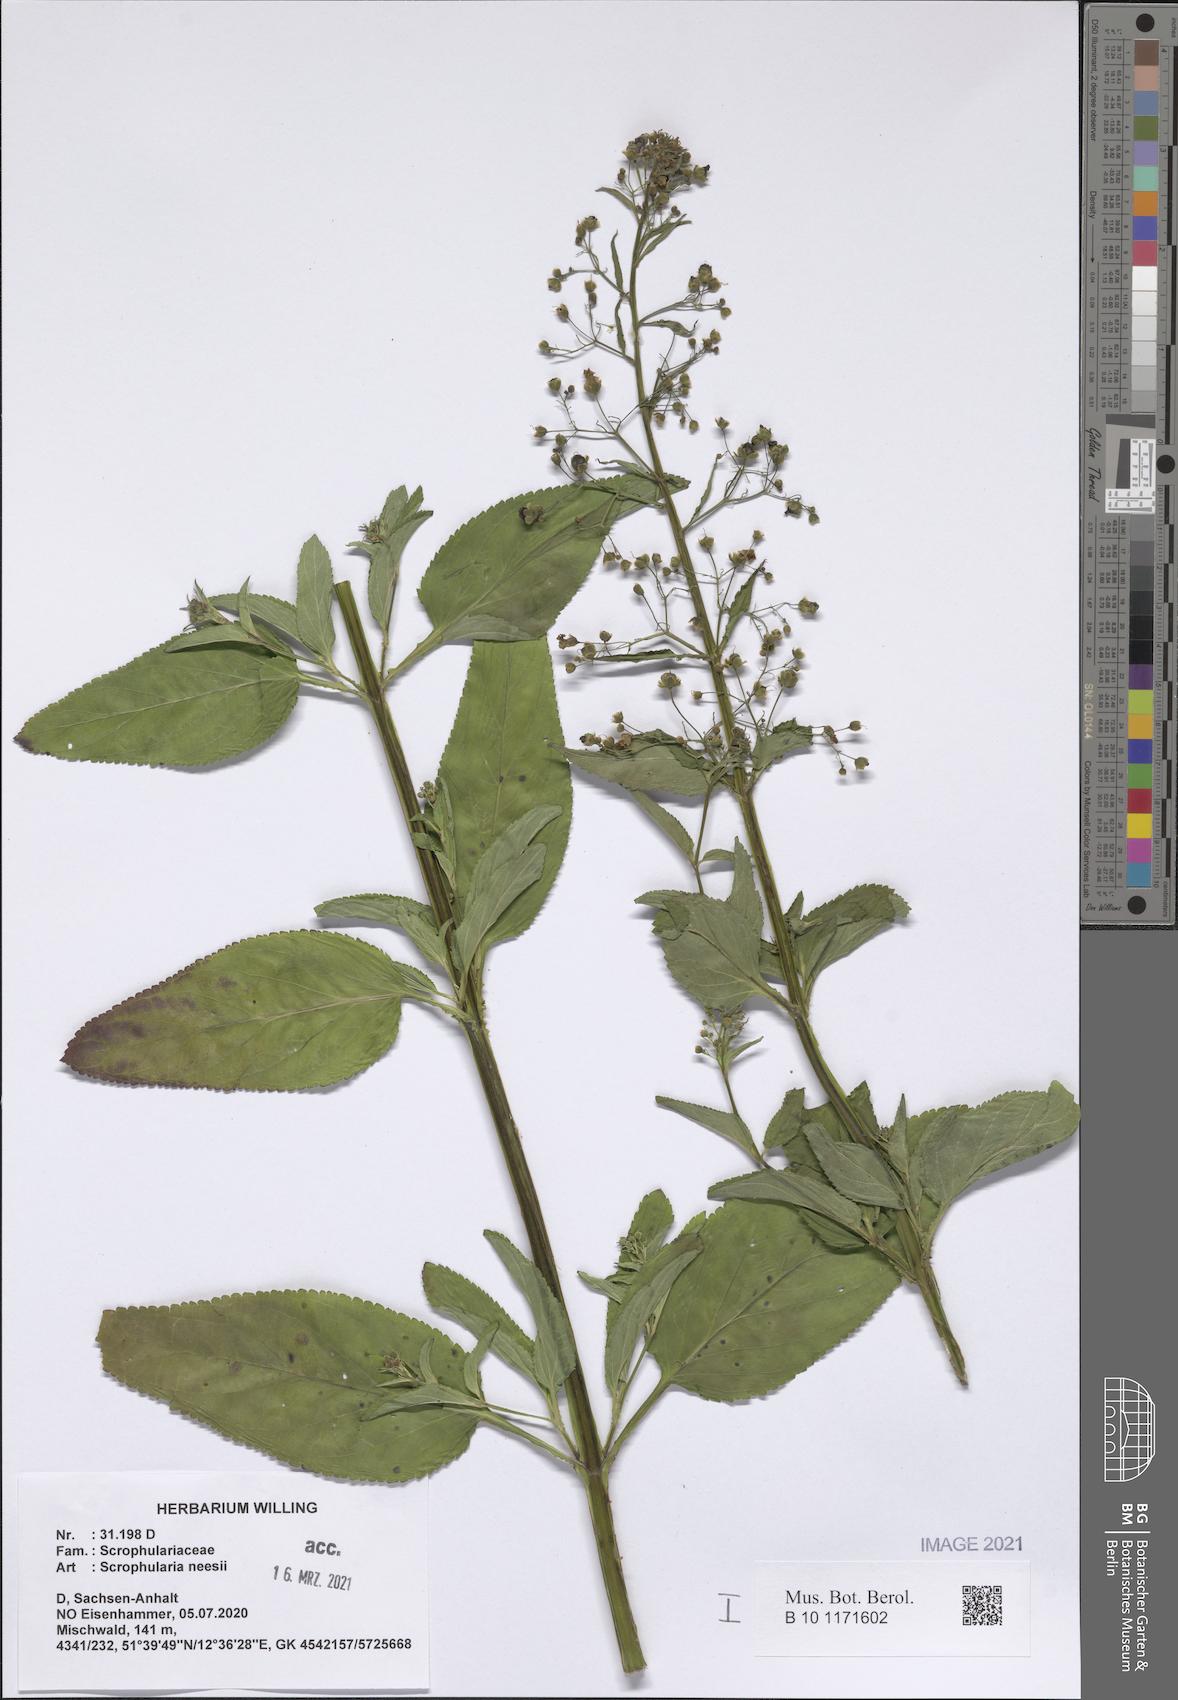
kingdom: Plantae
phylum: Tracheophyta
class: Magnoliopsida
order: Lamiales
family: Scrophulariaceae
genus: Scrophularia
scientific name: Scrophularia neesii
